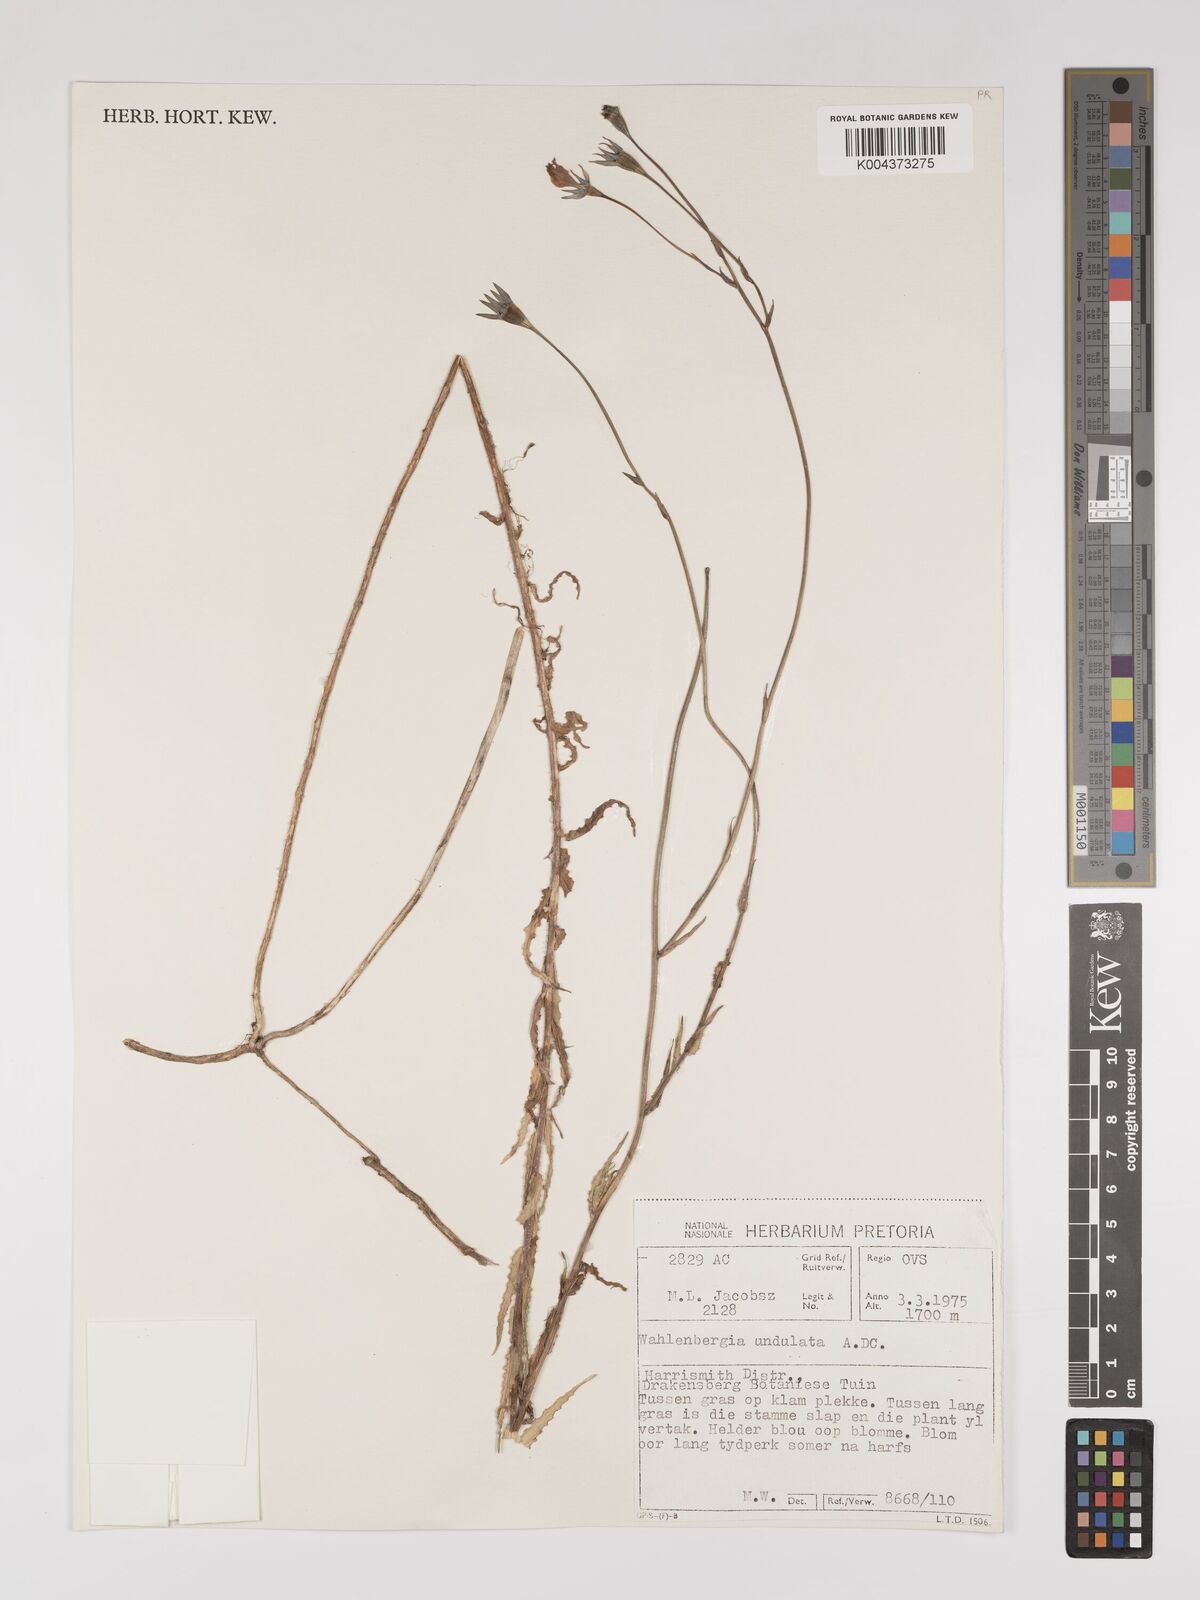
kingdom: Plantae
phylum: Tracheophyta
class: Magnoliopsida
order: Asterales
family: Campanulaceae
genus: Wahlenbergia
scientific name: Wahlenbergia undulata
